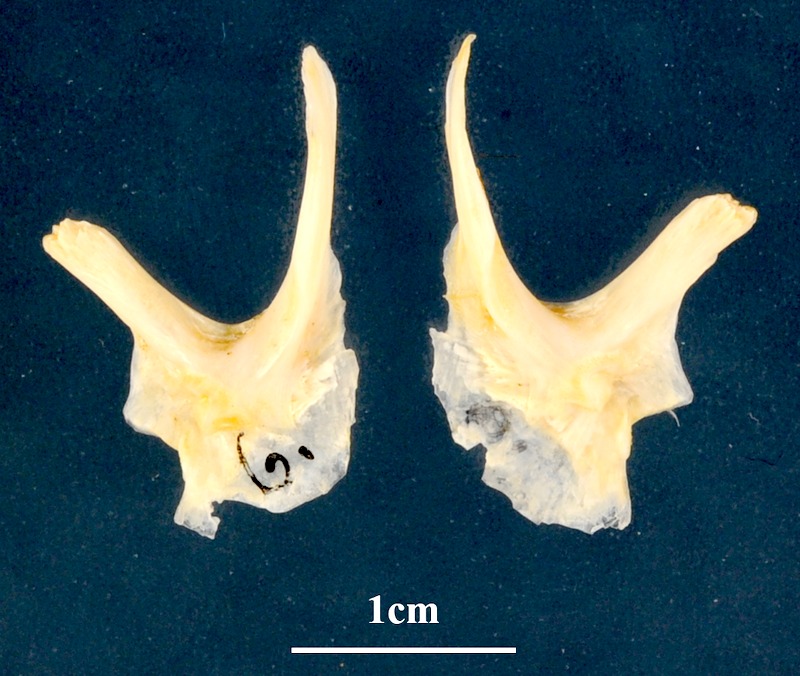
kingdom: Animalia
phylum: Chordata
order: Perciformes
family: Sparidae
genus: Sparus
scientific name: Sparus aurata
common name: Gilthead
